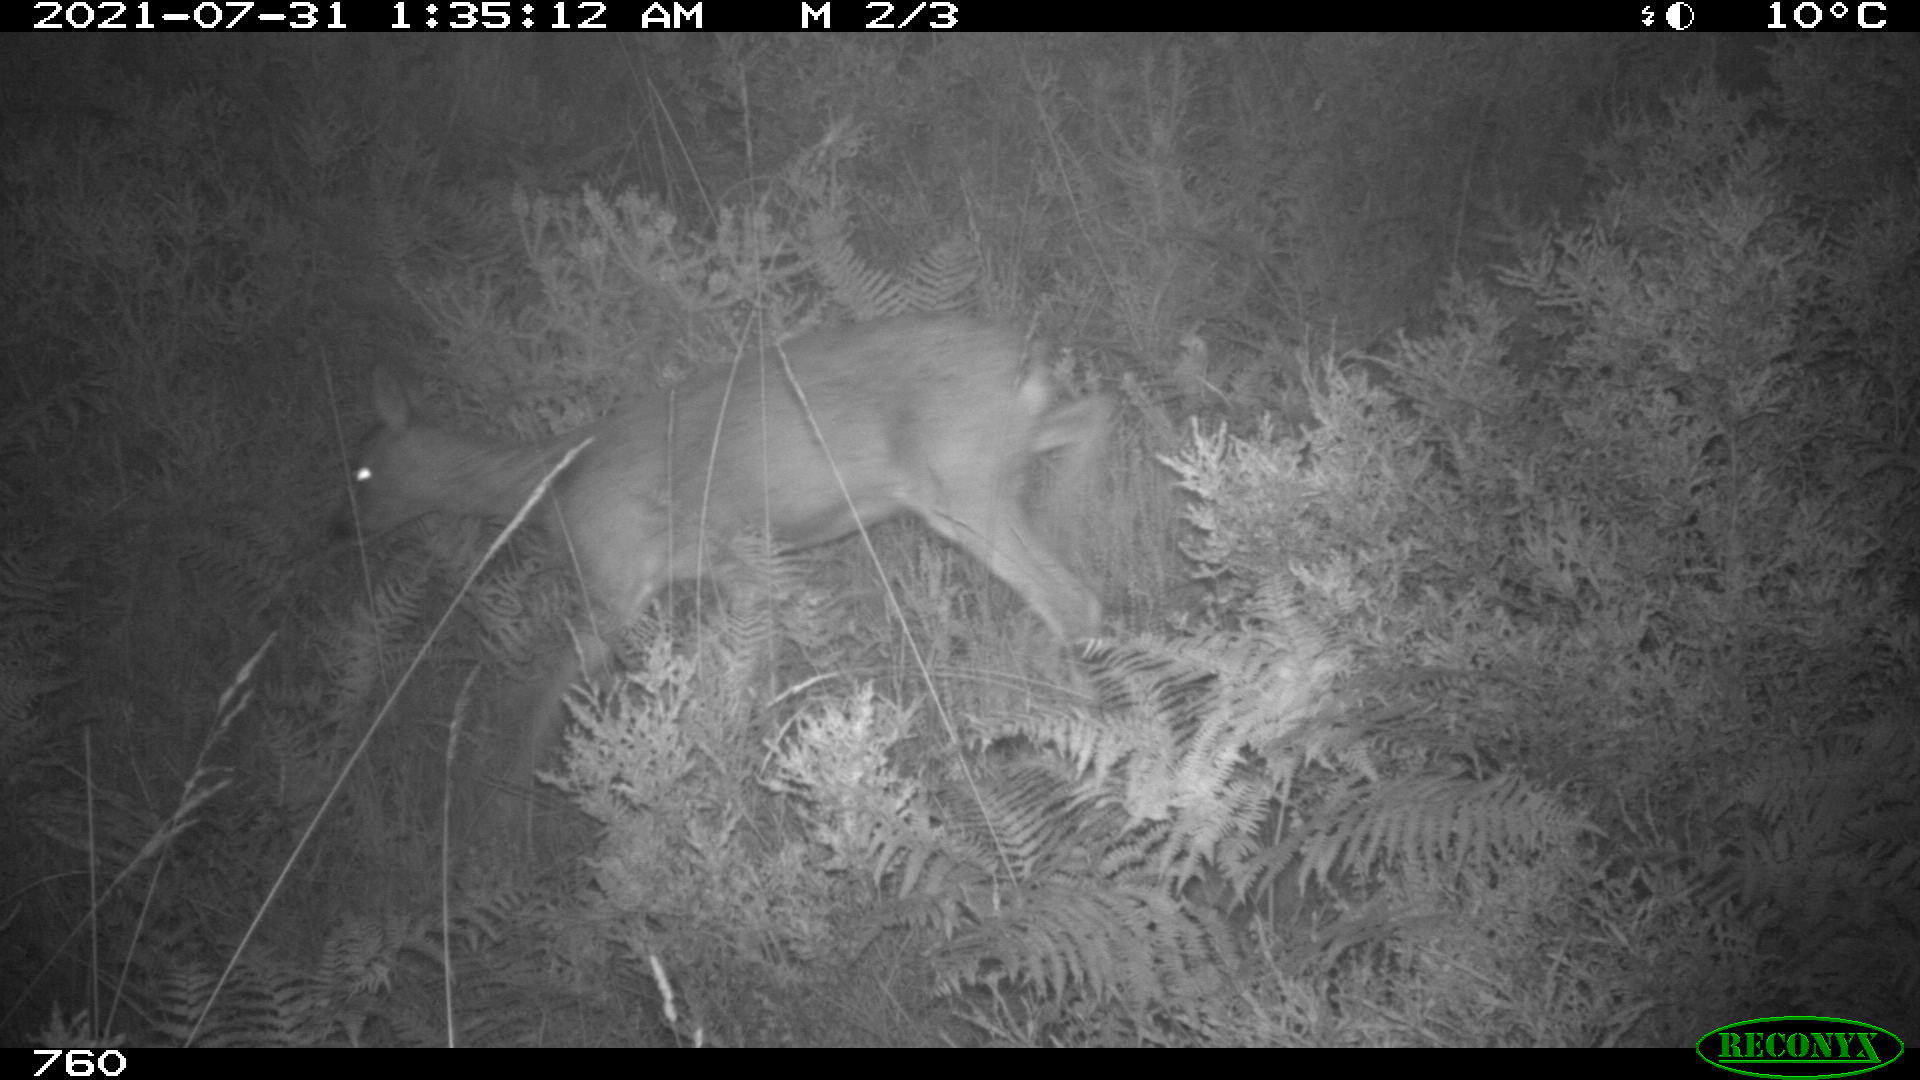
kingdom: Animalia
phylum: Chordata
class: Mammalia
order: Artiodactyla
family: Cervidae
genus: Capreolus
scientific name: Capreolus capreolus
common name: Western roe deer
